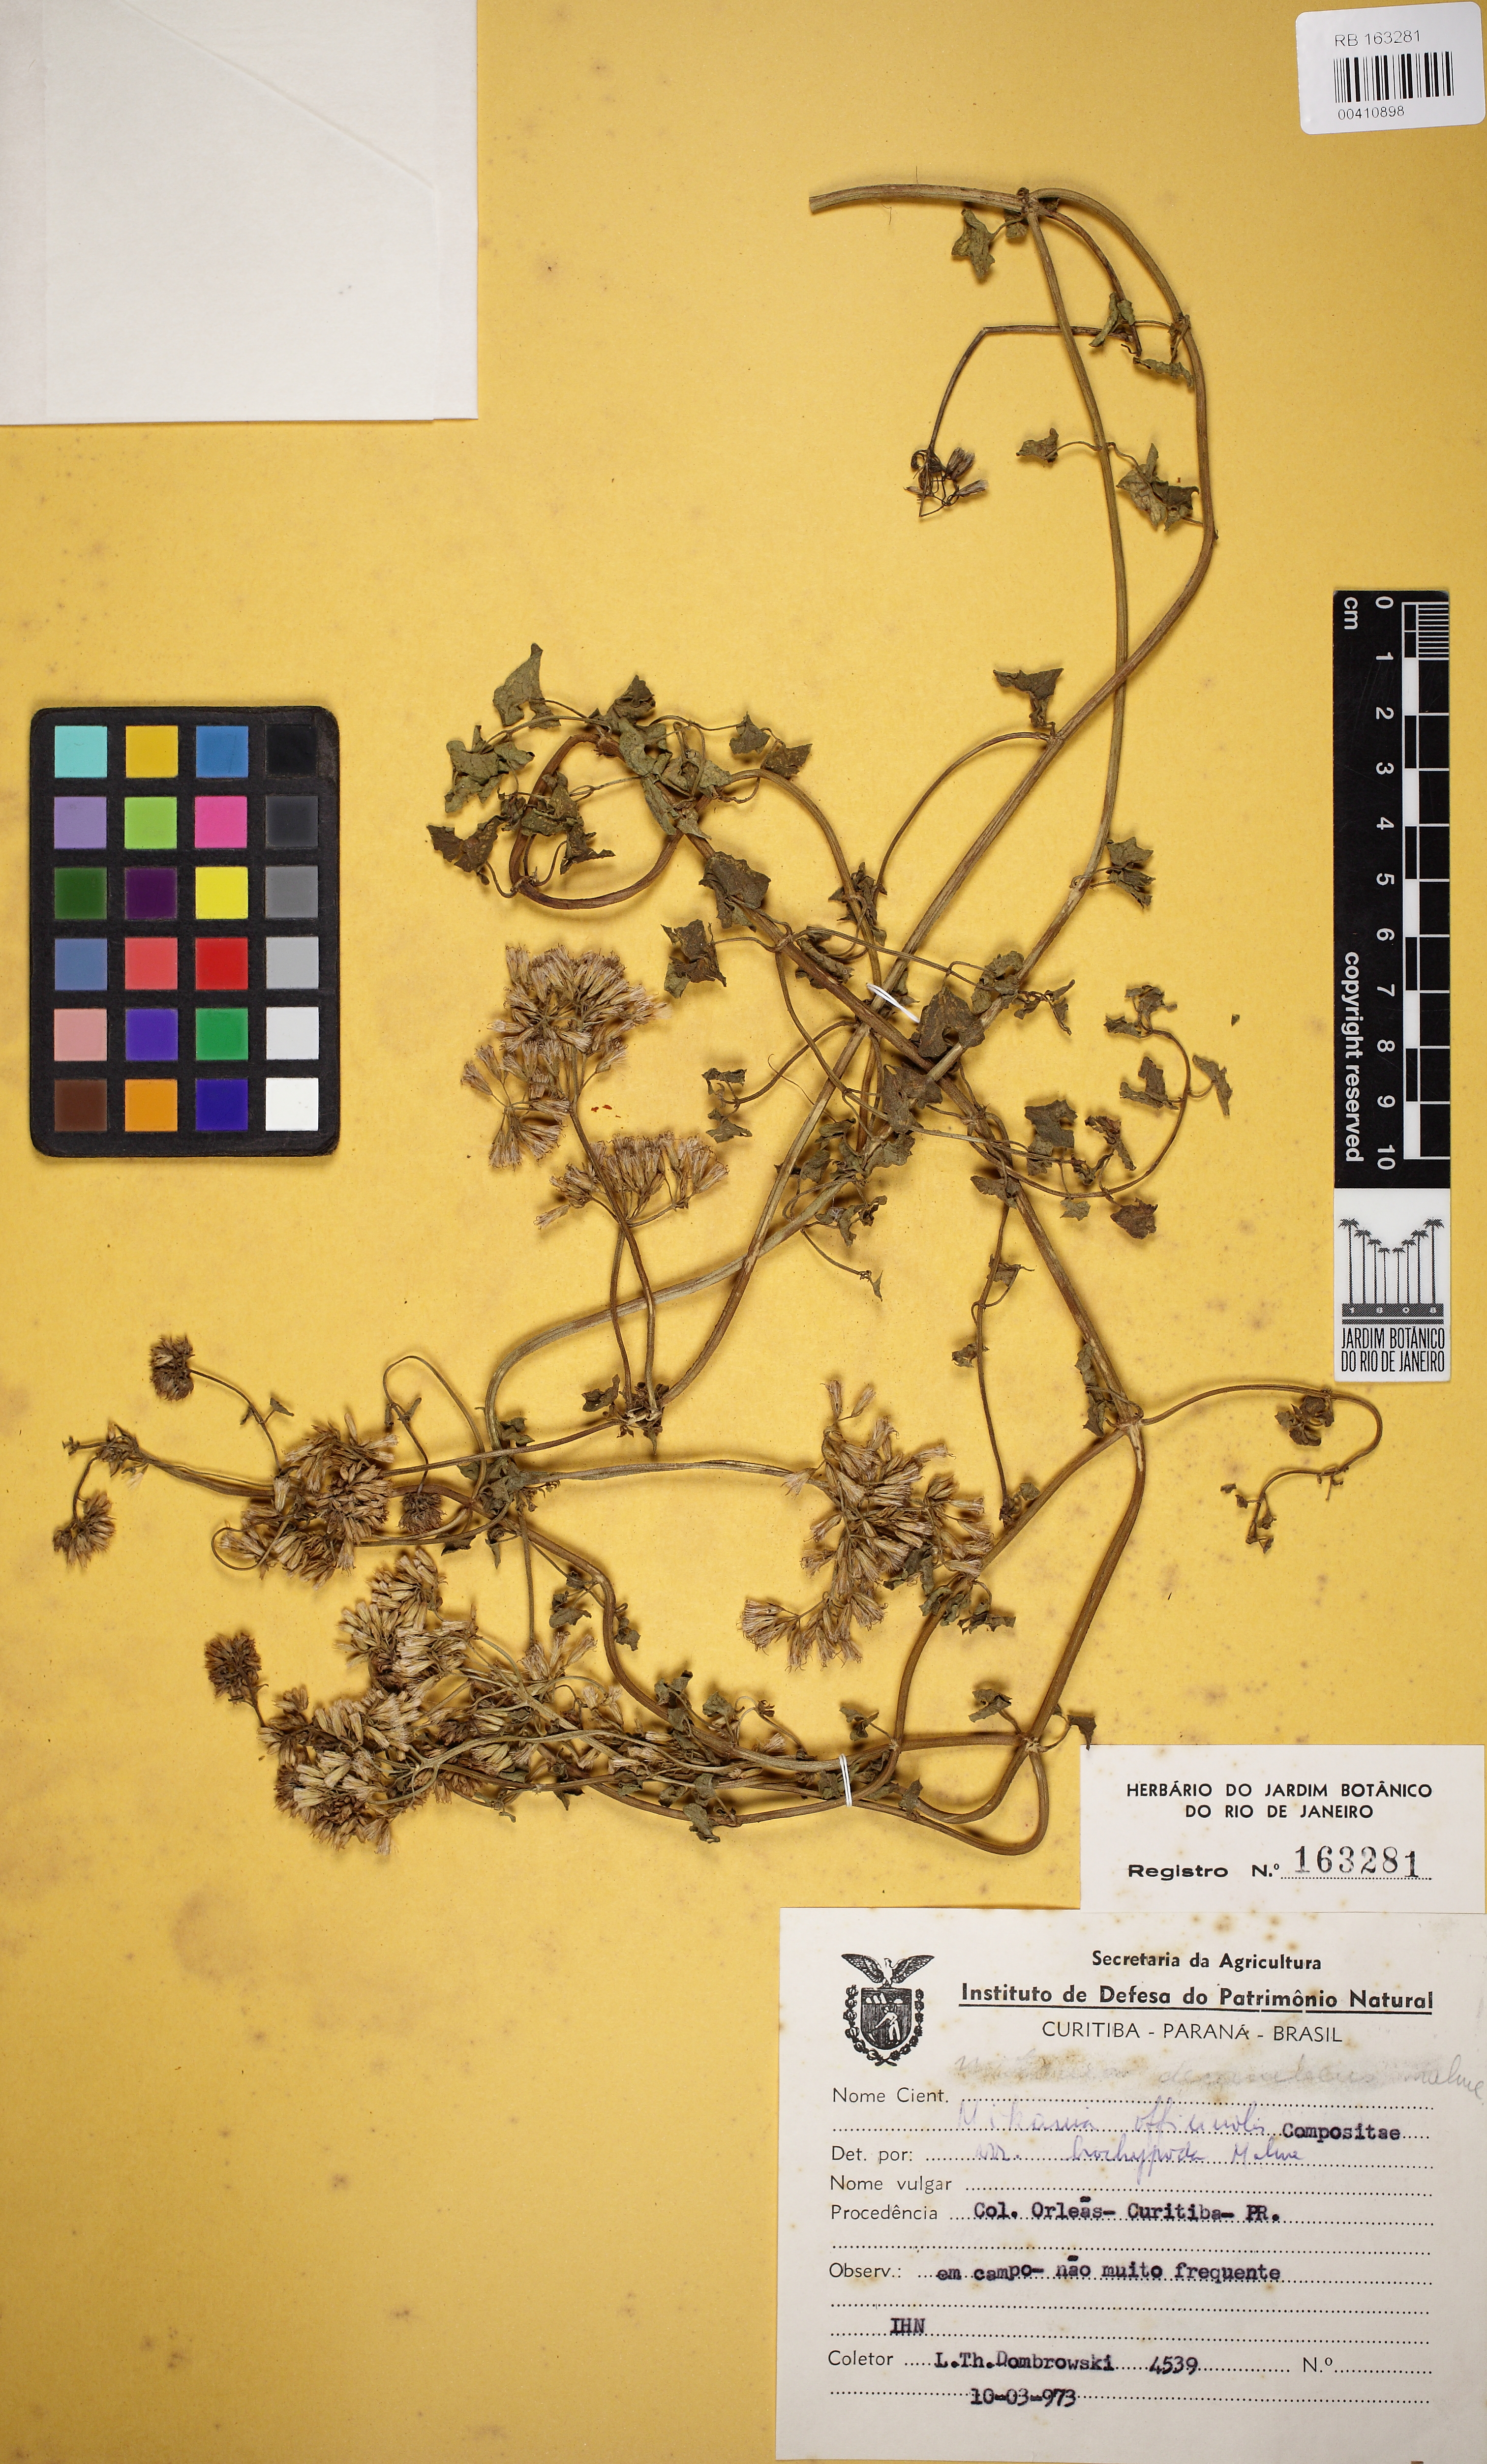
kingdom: Plantae
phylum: Tracheophyta
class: Magnoliopsida
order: Asterales
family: Asteraceae
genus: Mikania
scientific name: Mikania officinalis
